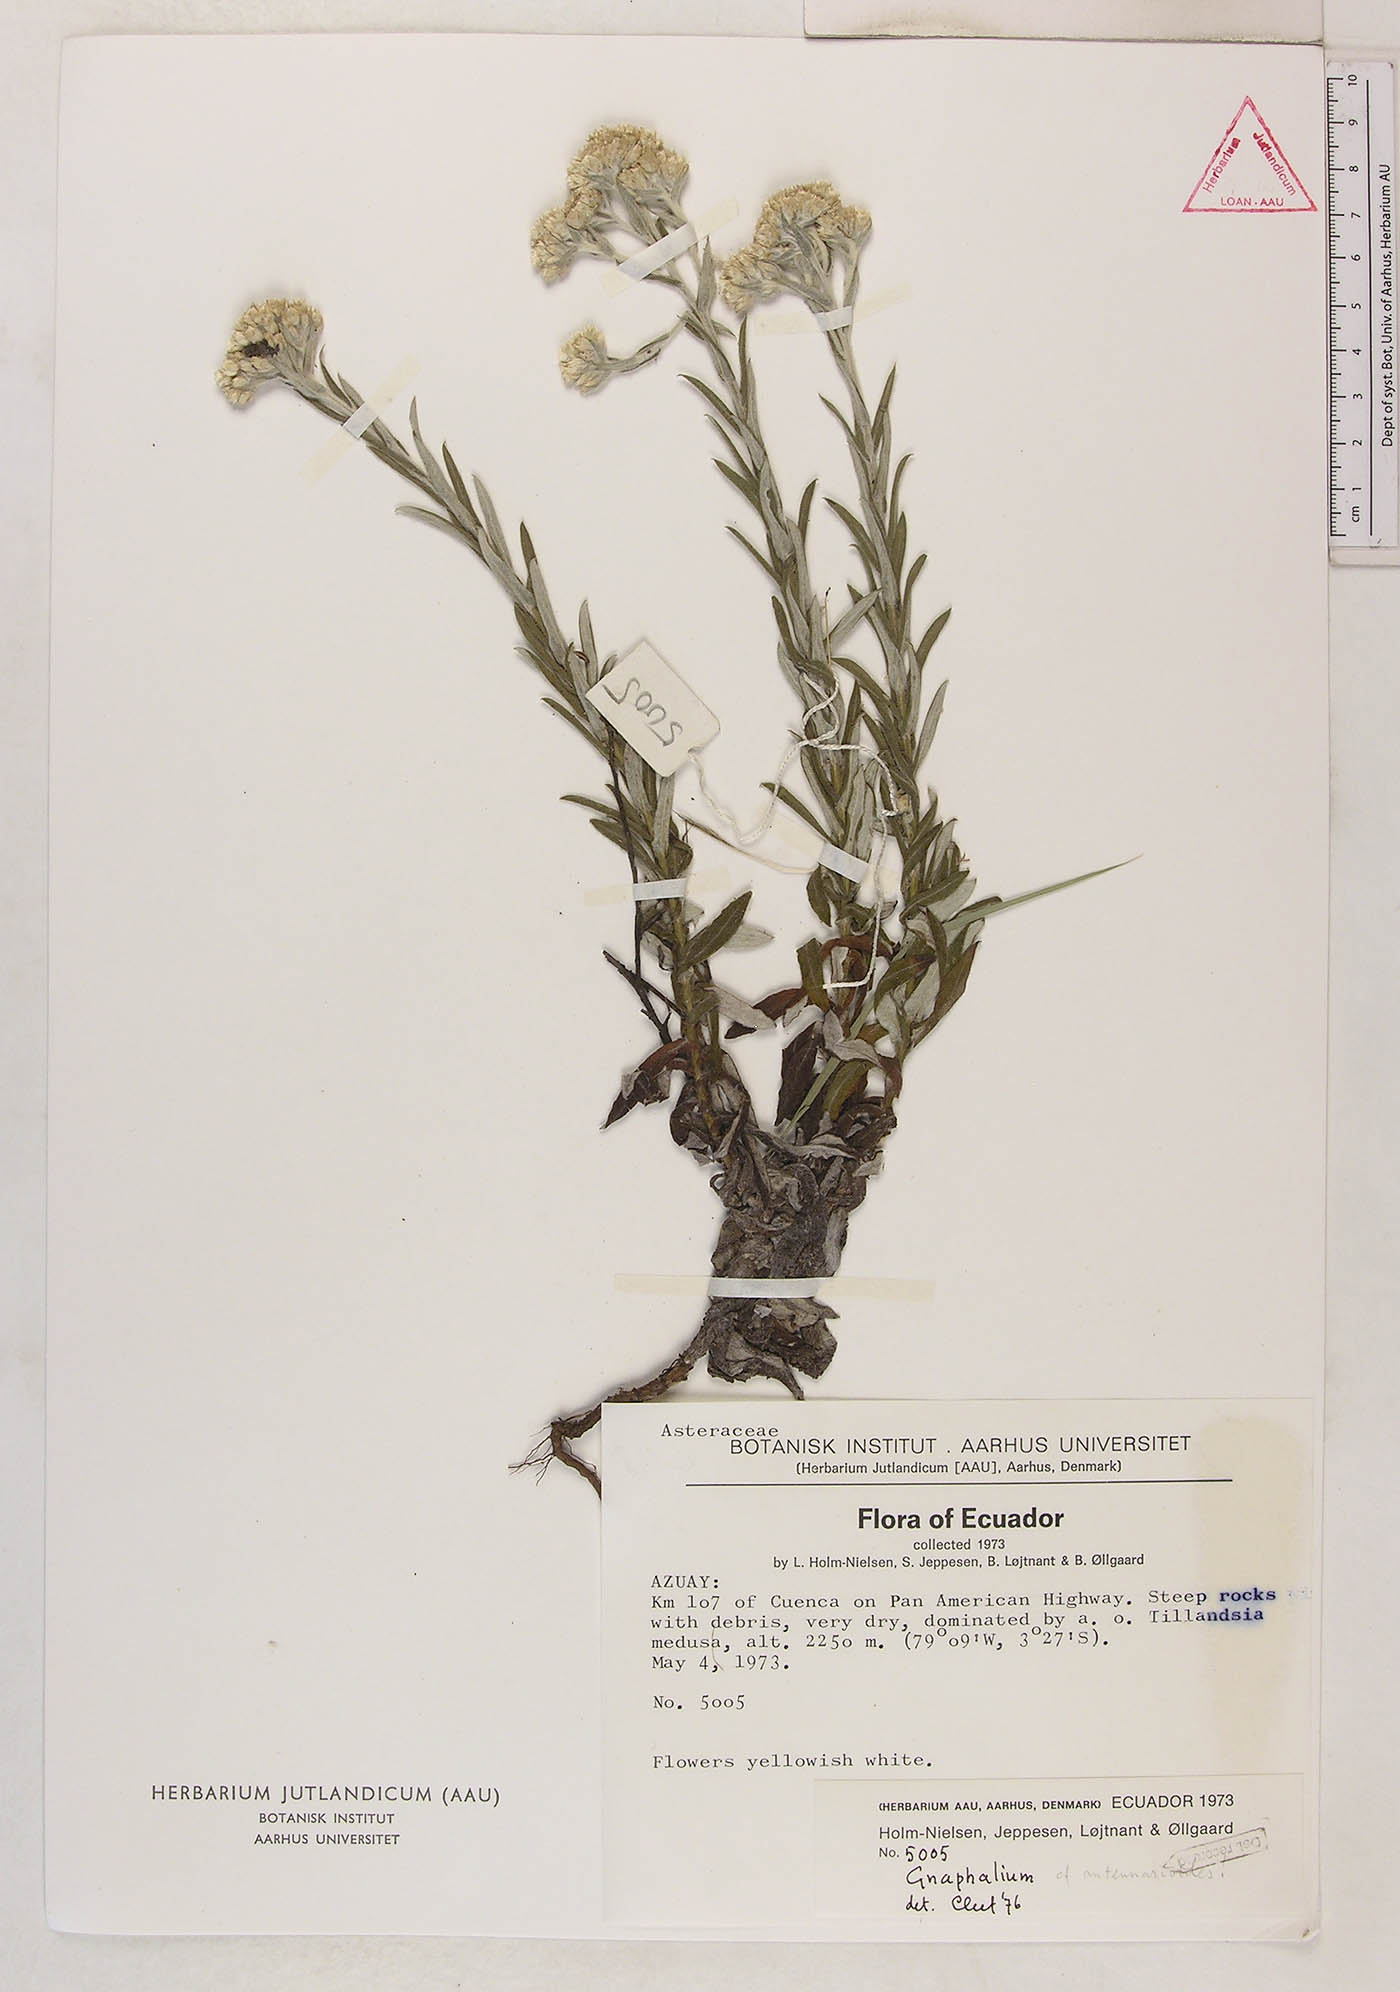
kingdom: Plantae
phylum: Tracheophyta
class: Magnoliopsida
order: Asterales
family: Asteraceae
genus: Chryselium
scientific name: Chryselium gnaphalioides
